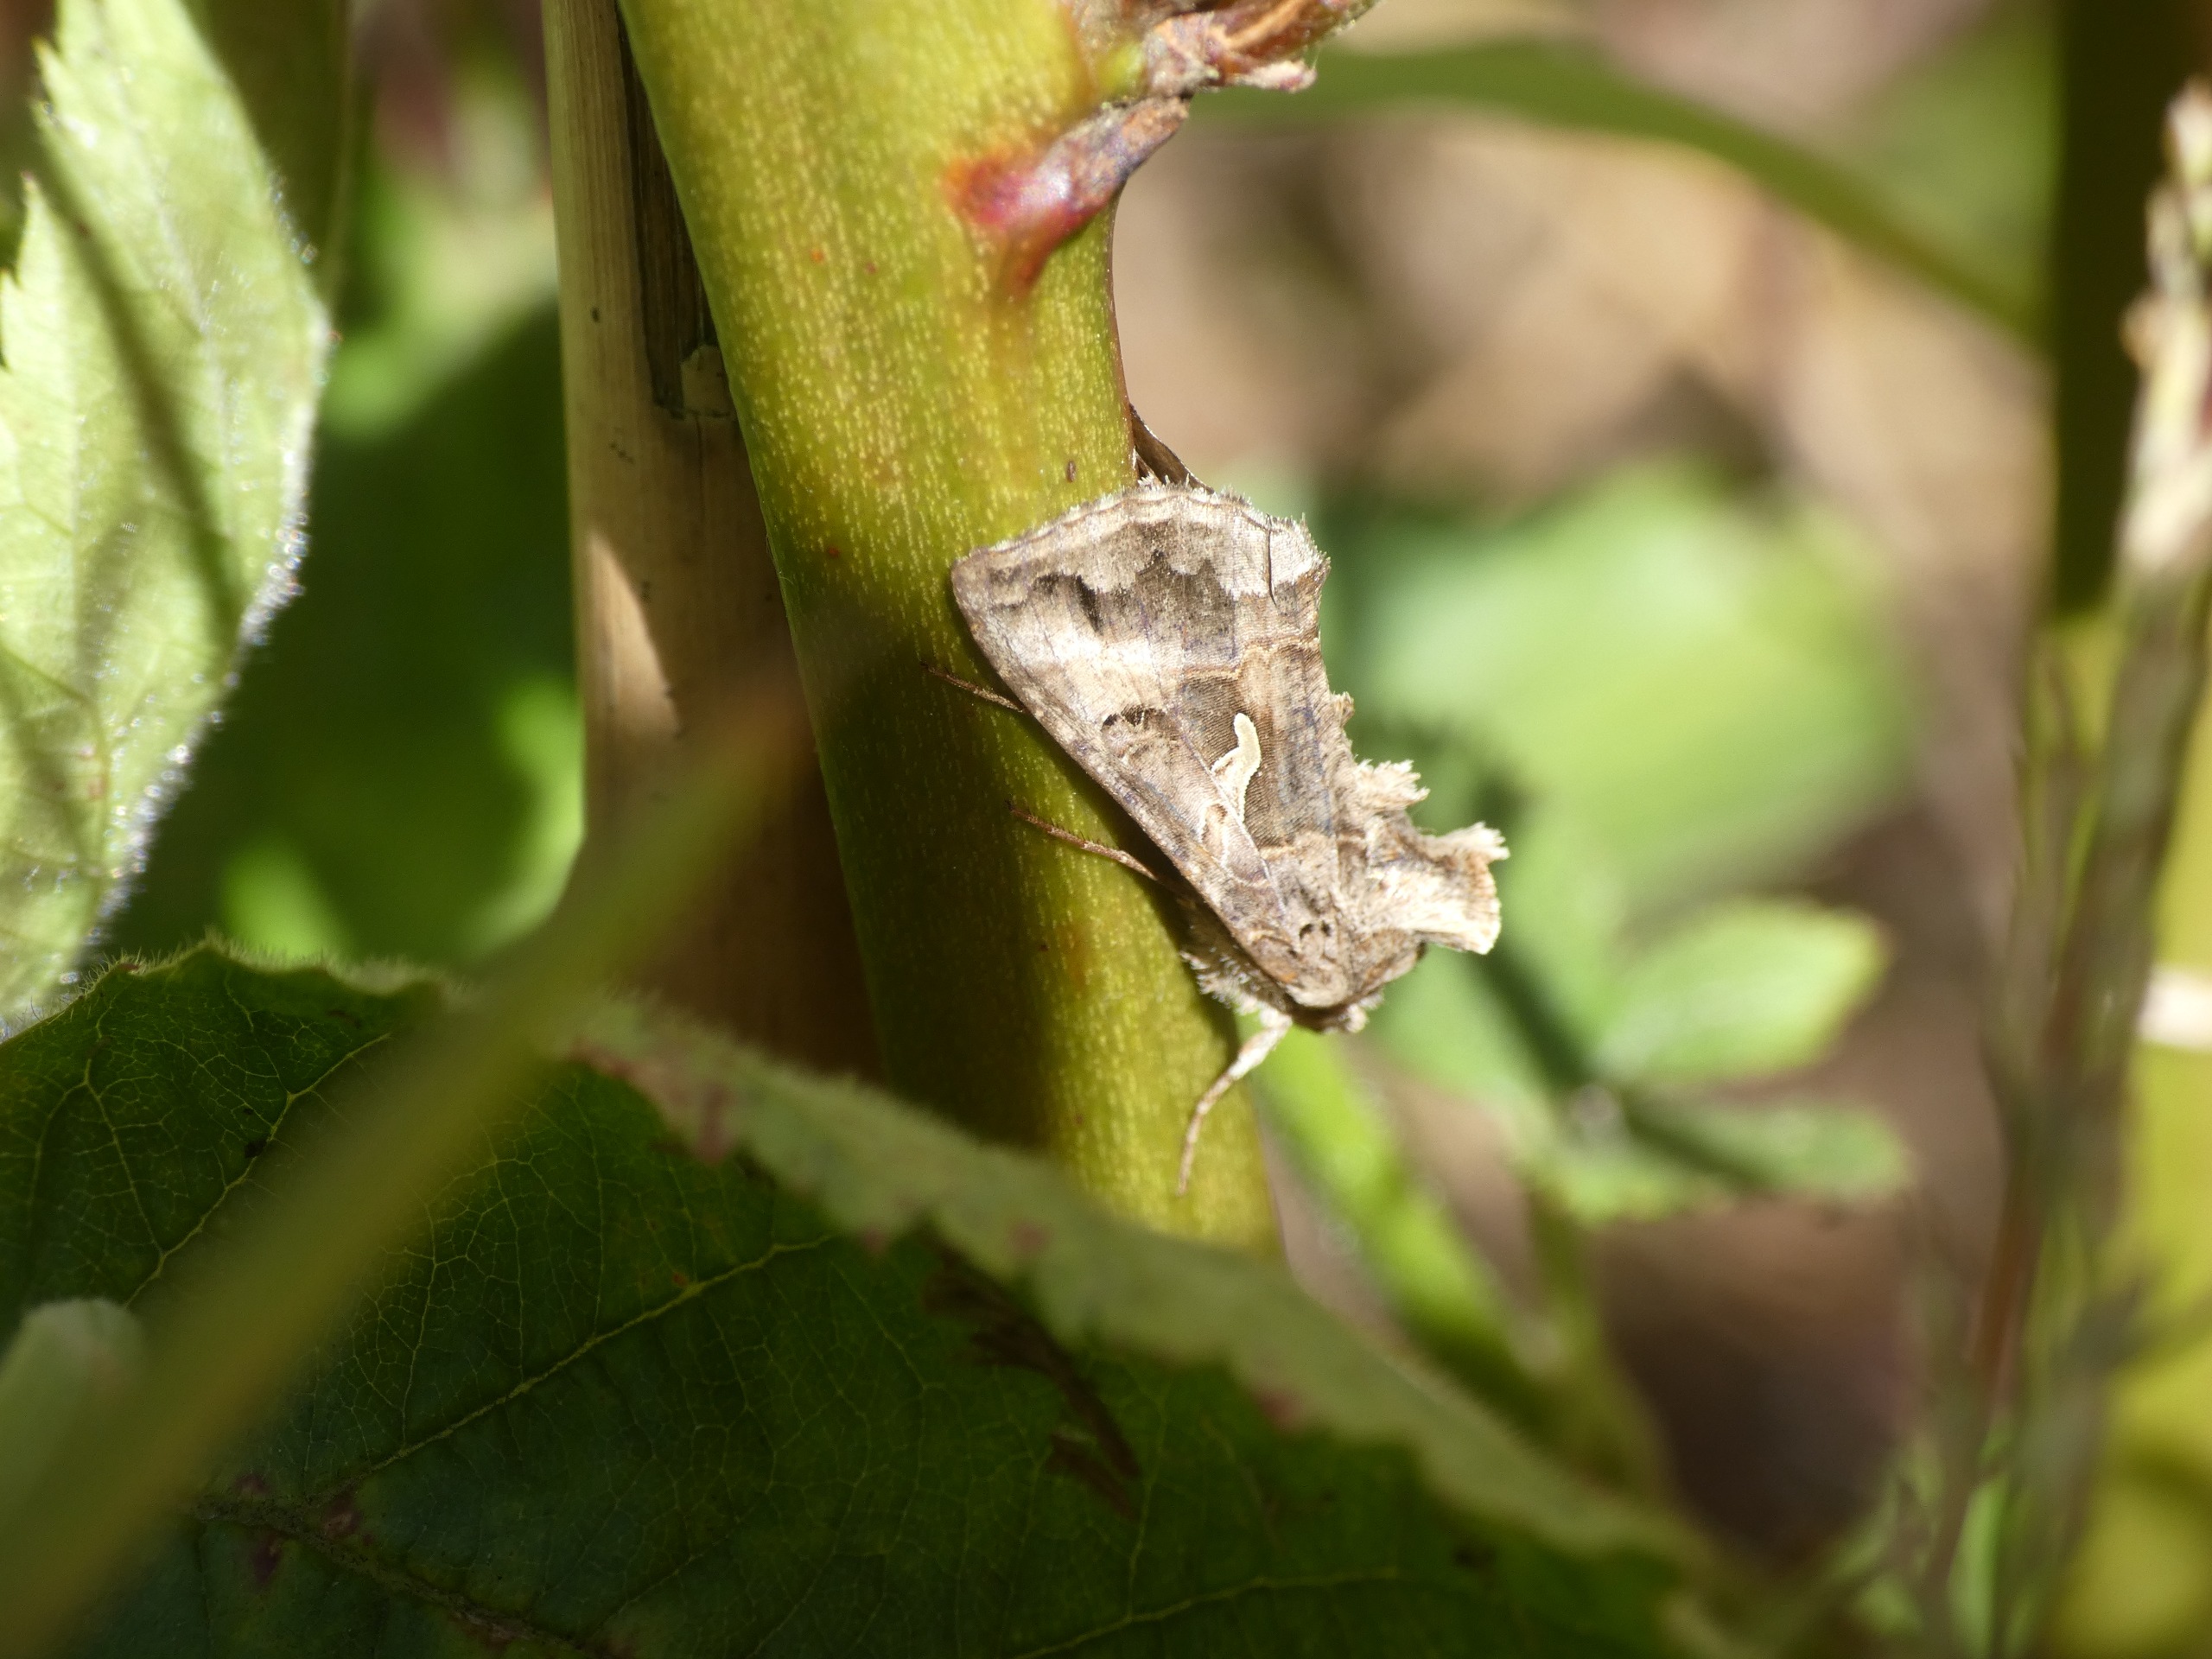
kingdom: Animalia
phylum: Arthropoda
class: Insecta
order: Lepidoptera
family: Noctuidae
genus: Autographa
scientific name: Autographa gamma
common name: Gammaugle
